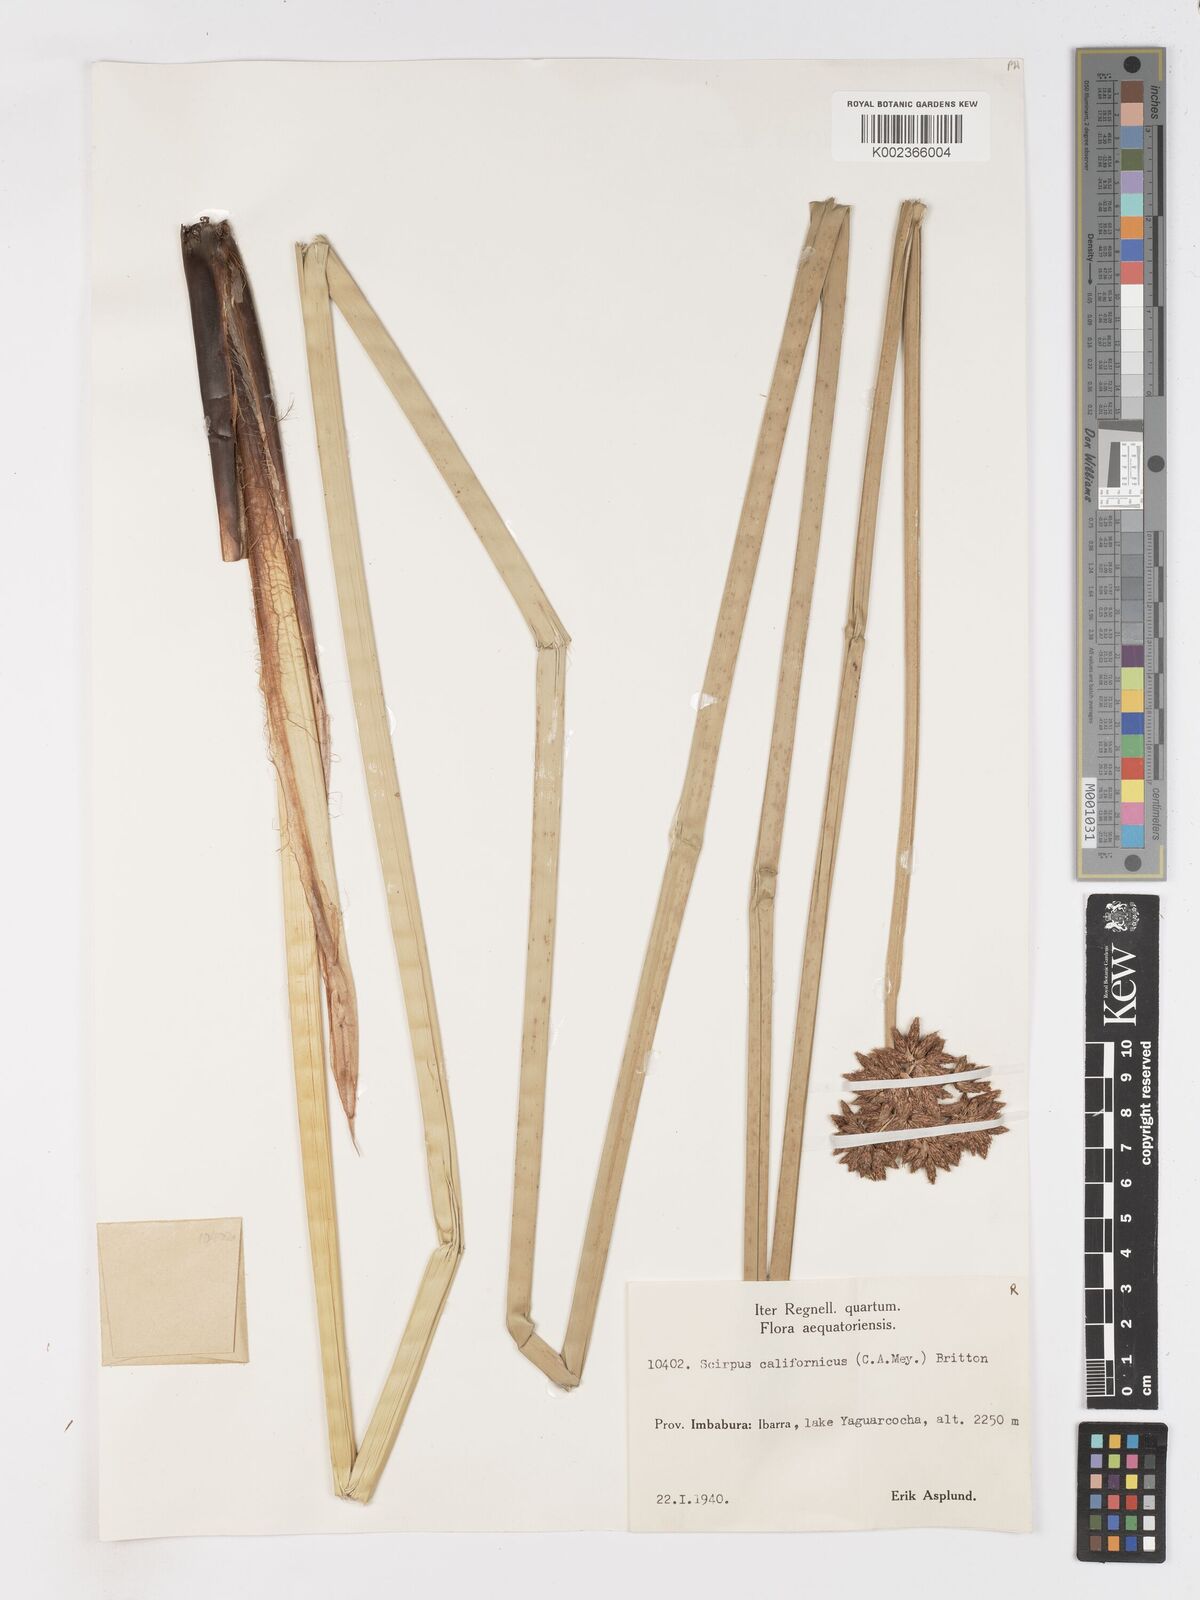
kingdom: Plantae
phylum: Tracheophyta
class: Liliopsida
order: Poales
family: Cyperaceae
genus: Schoenoplectus
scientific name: Schoenoplectus californicus
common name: California bulrush
